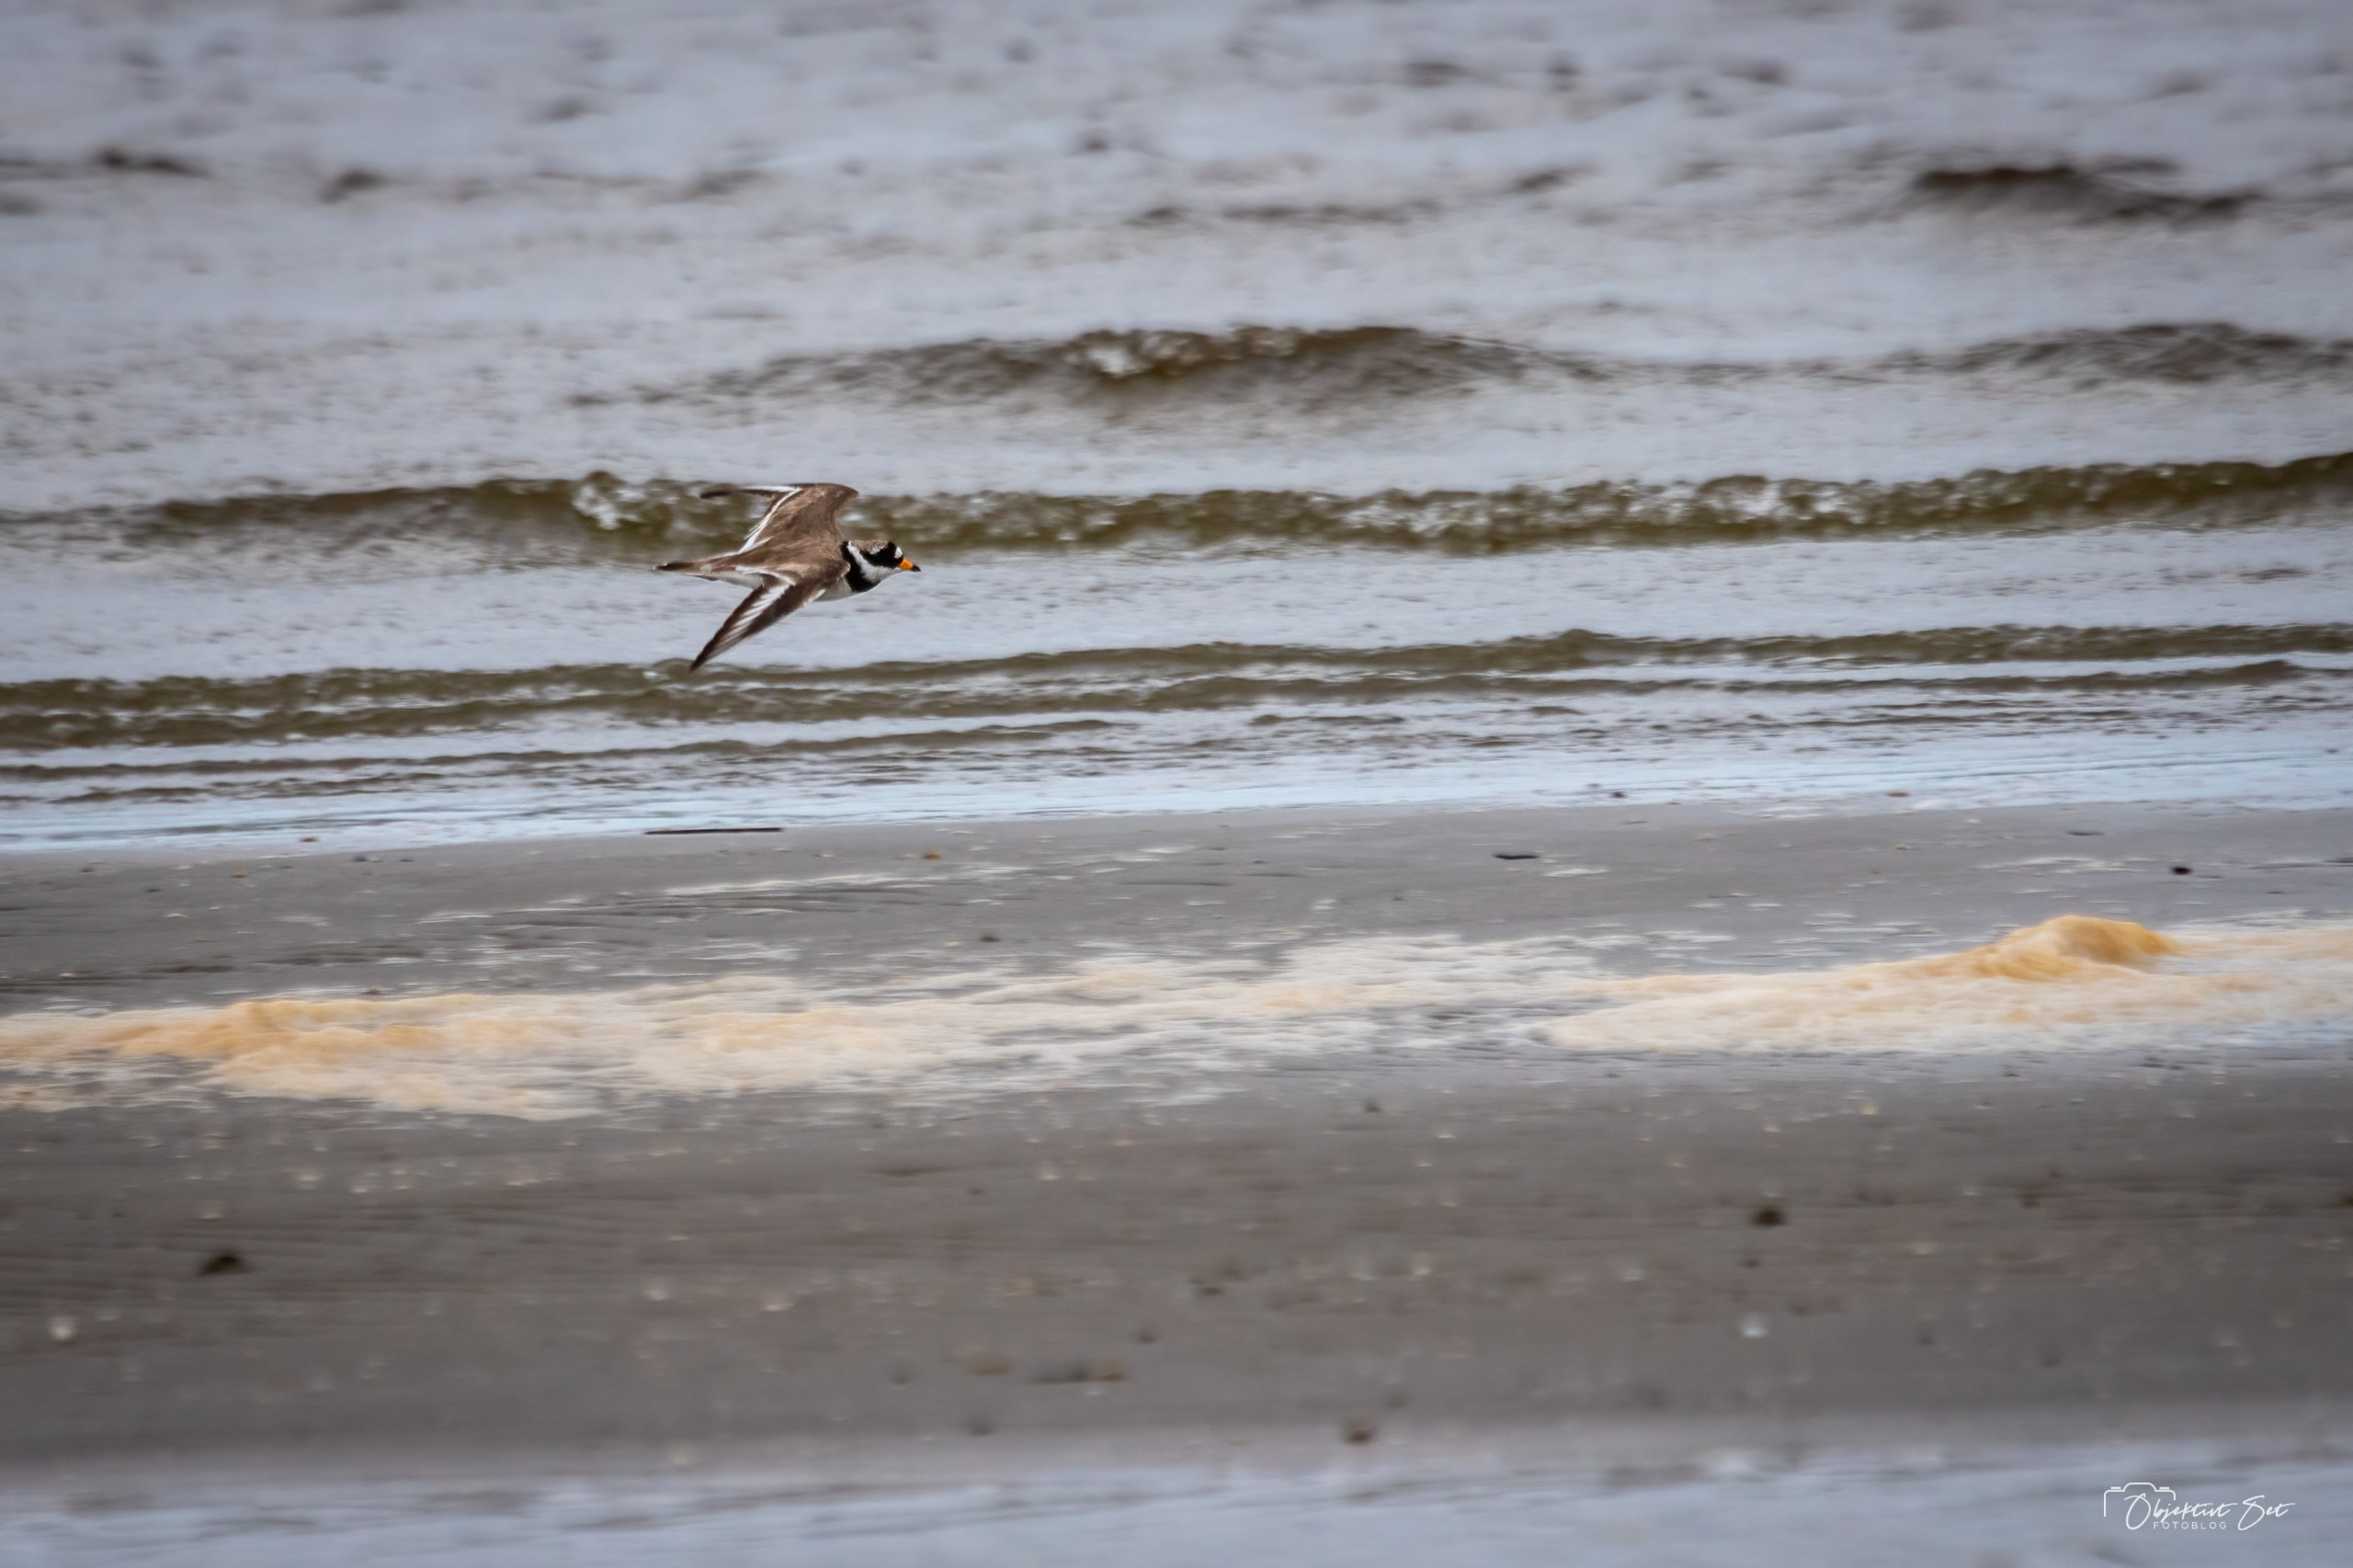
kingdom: Animalia
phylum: Chordata
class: Aves
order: Charadriiformes
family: Charadriidae
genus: Charadrius
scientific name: Charadrius hiaticula
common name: Stor præstekrave
